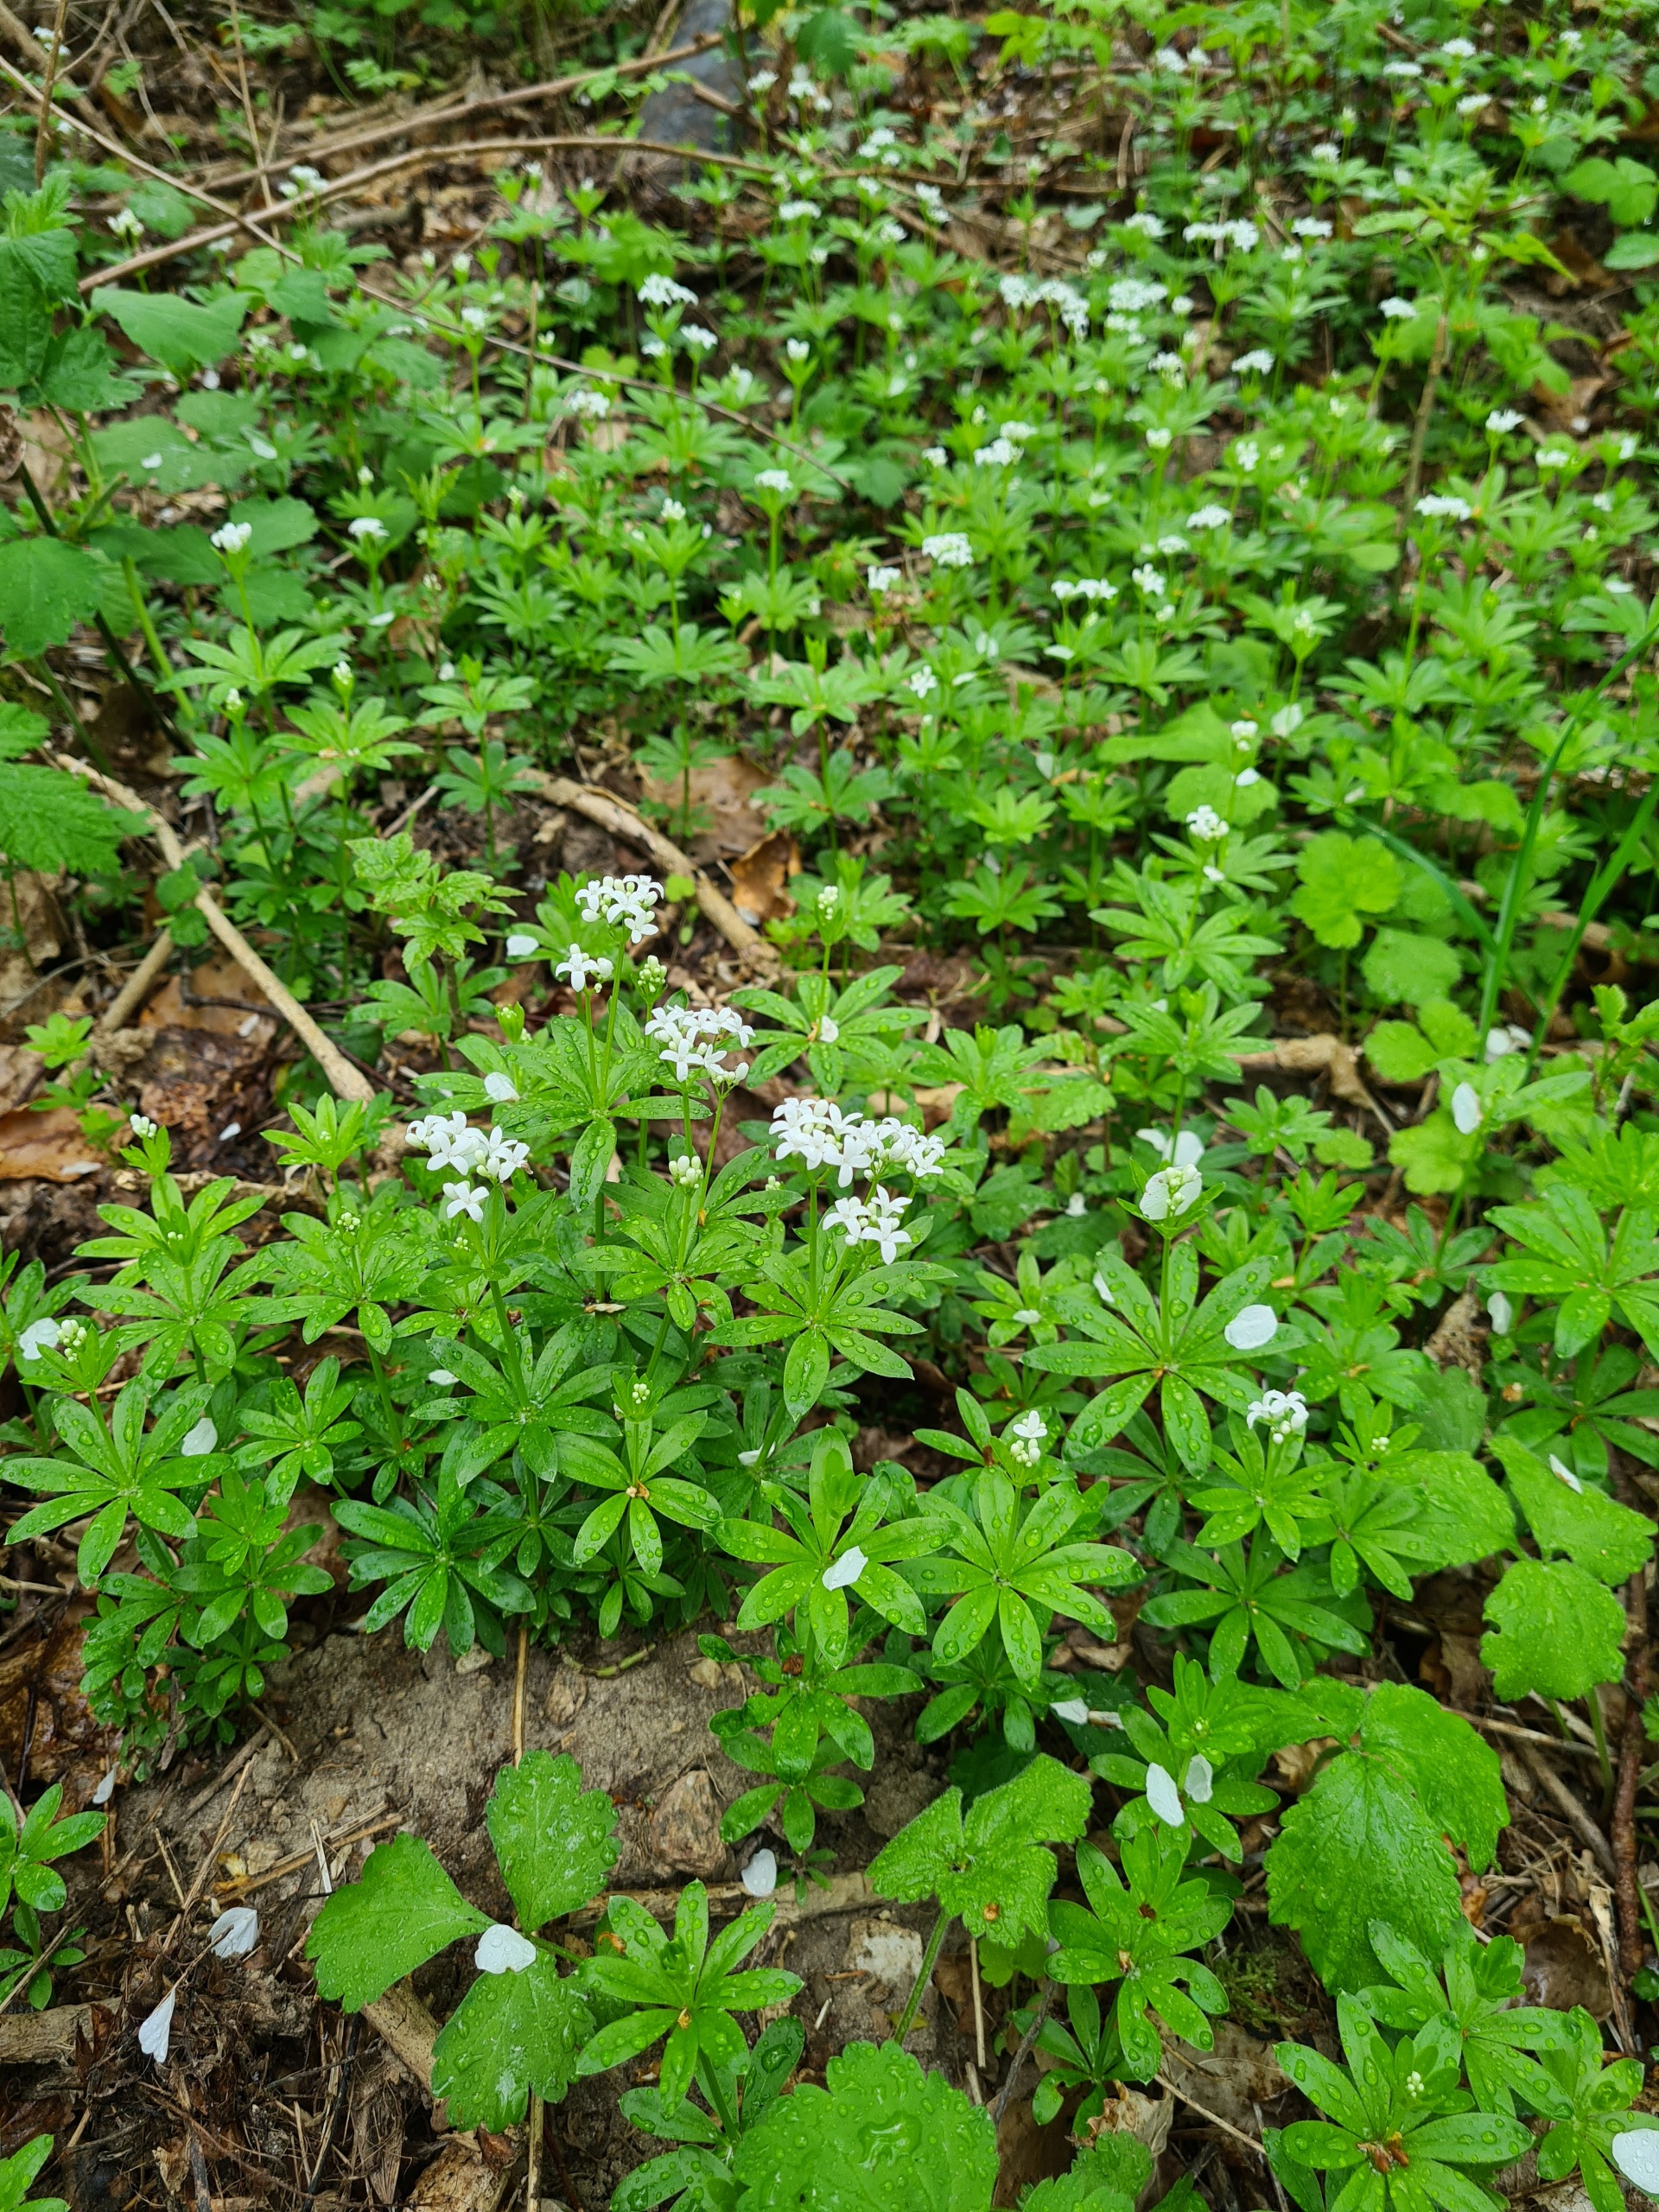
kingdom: Plantae
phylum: Tracheophyta
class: Magnoliopsida
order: Gentianales
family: Rubiaceae
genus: Galium
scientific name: Galium odoratum
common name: Skovmærke
